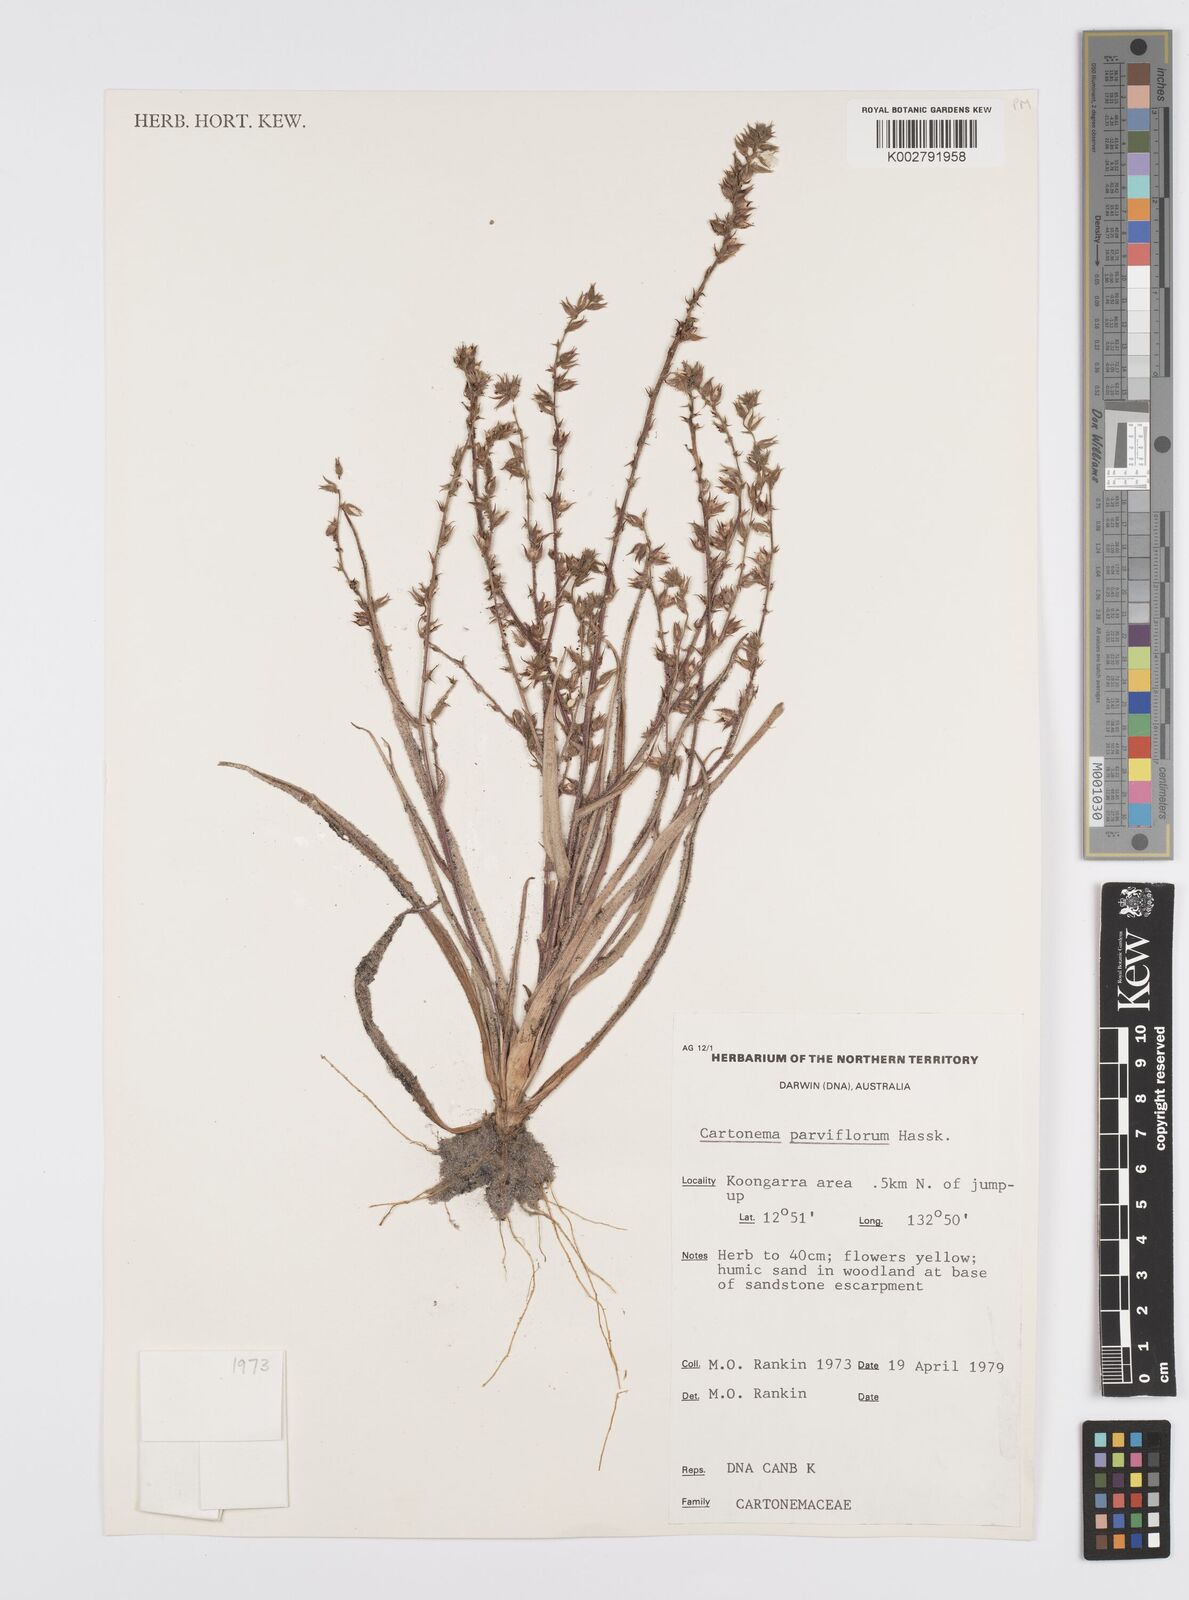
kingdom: Plantae
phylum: Tracheophyta
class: Liliopsida
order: Commelinales
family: Commelinaceae
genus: Cartonema
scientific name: Cartonema parviflorum
